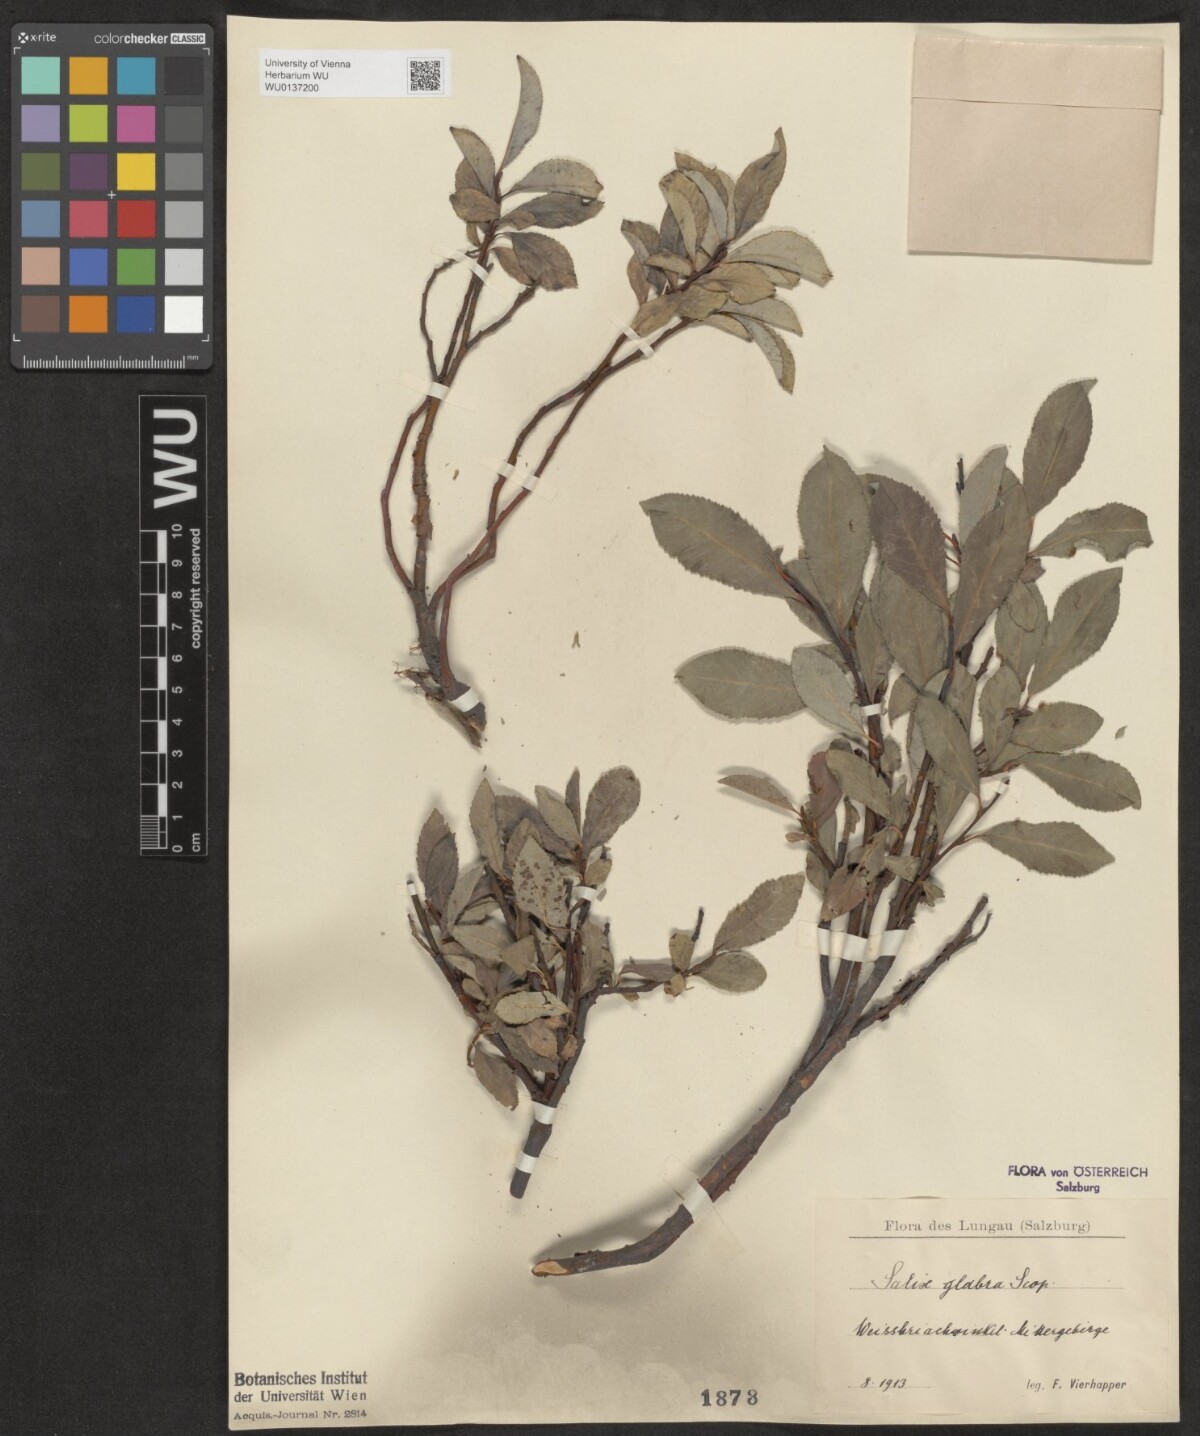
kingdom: Plantae
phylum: Tracheophyta
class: Magnoliopsida
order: Malpighiales
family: Salicaceae
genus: Salix
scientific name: Salix glabra
